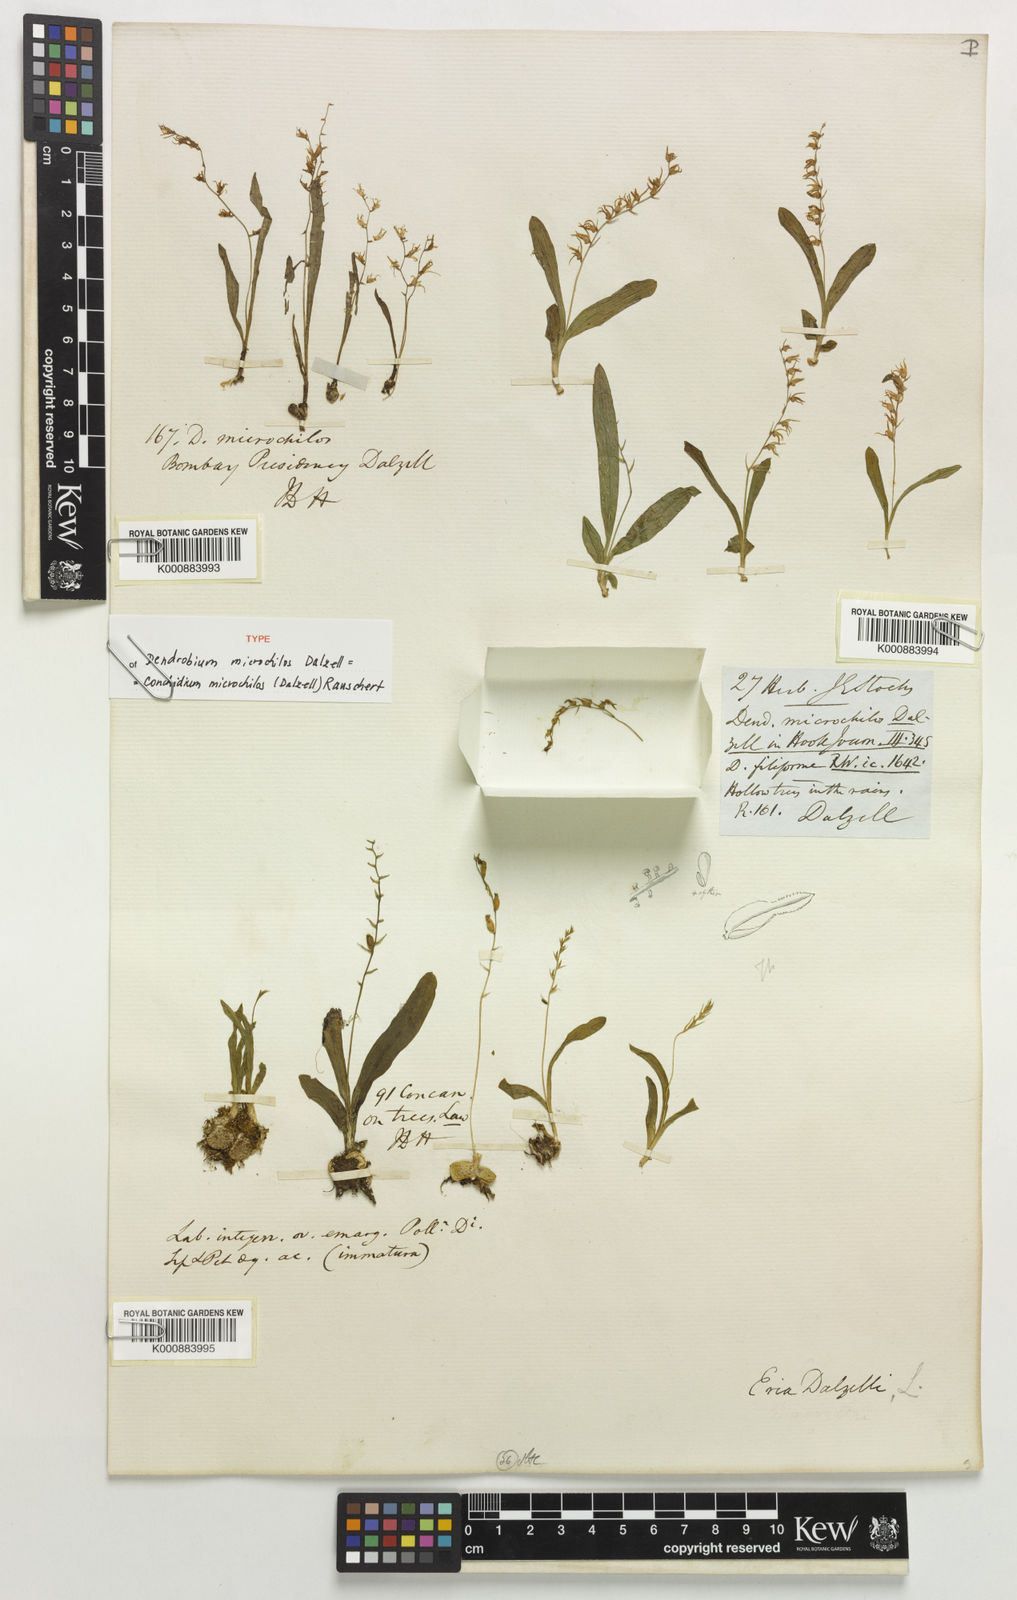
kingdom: Plantae
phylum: Tracheophyta
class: Liliopsida
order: Asparagales
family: Orchidaceae
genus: Porpax
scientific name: Porpax microchilos
